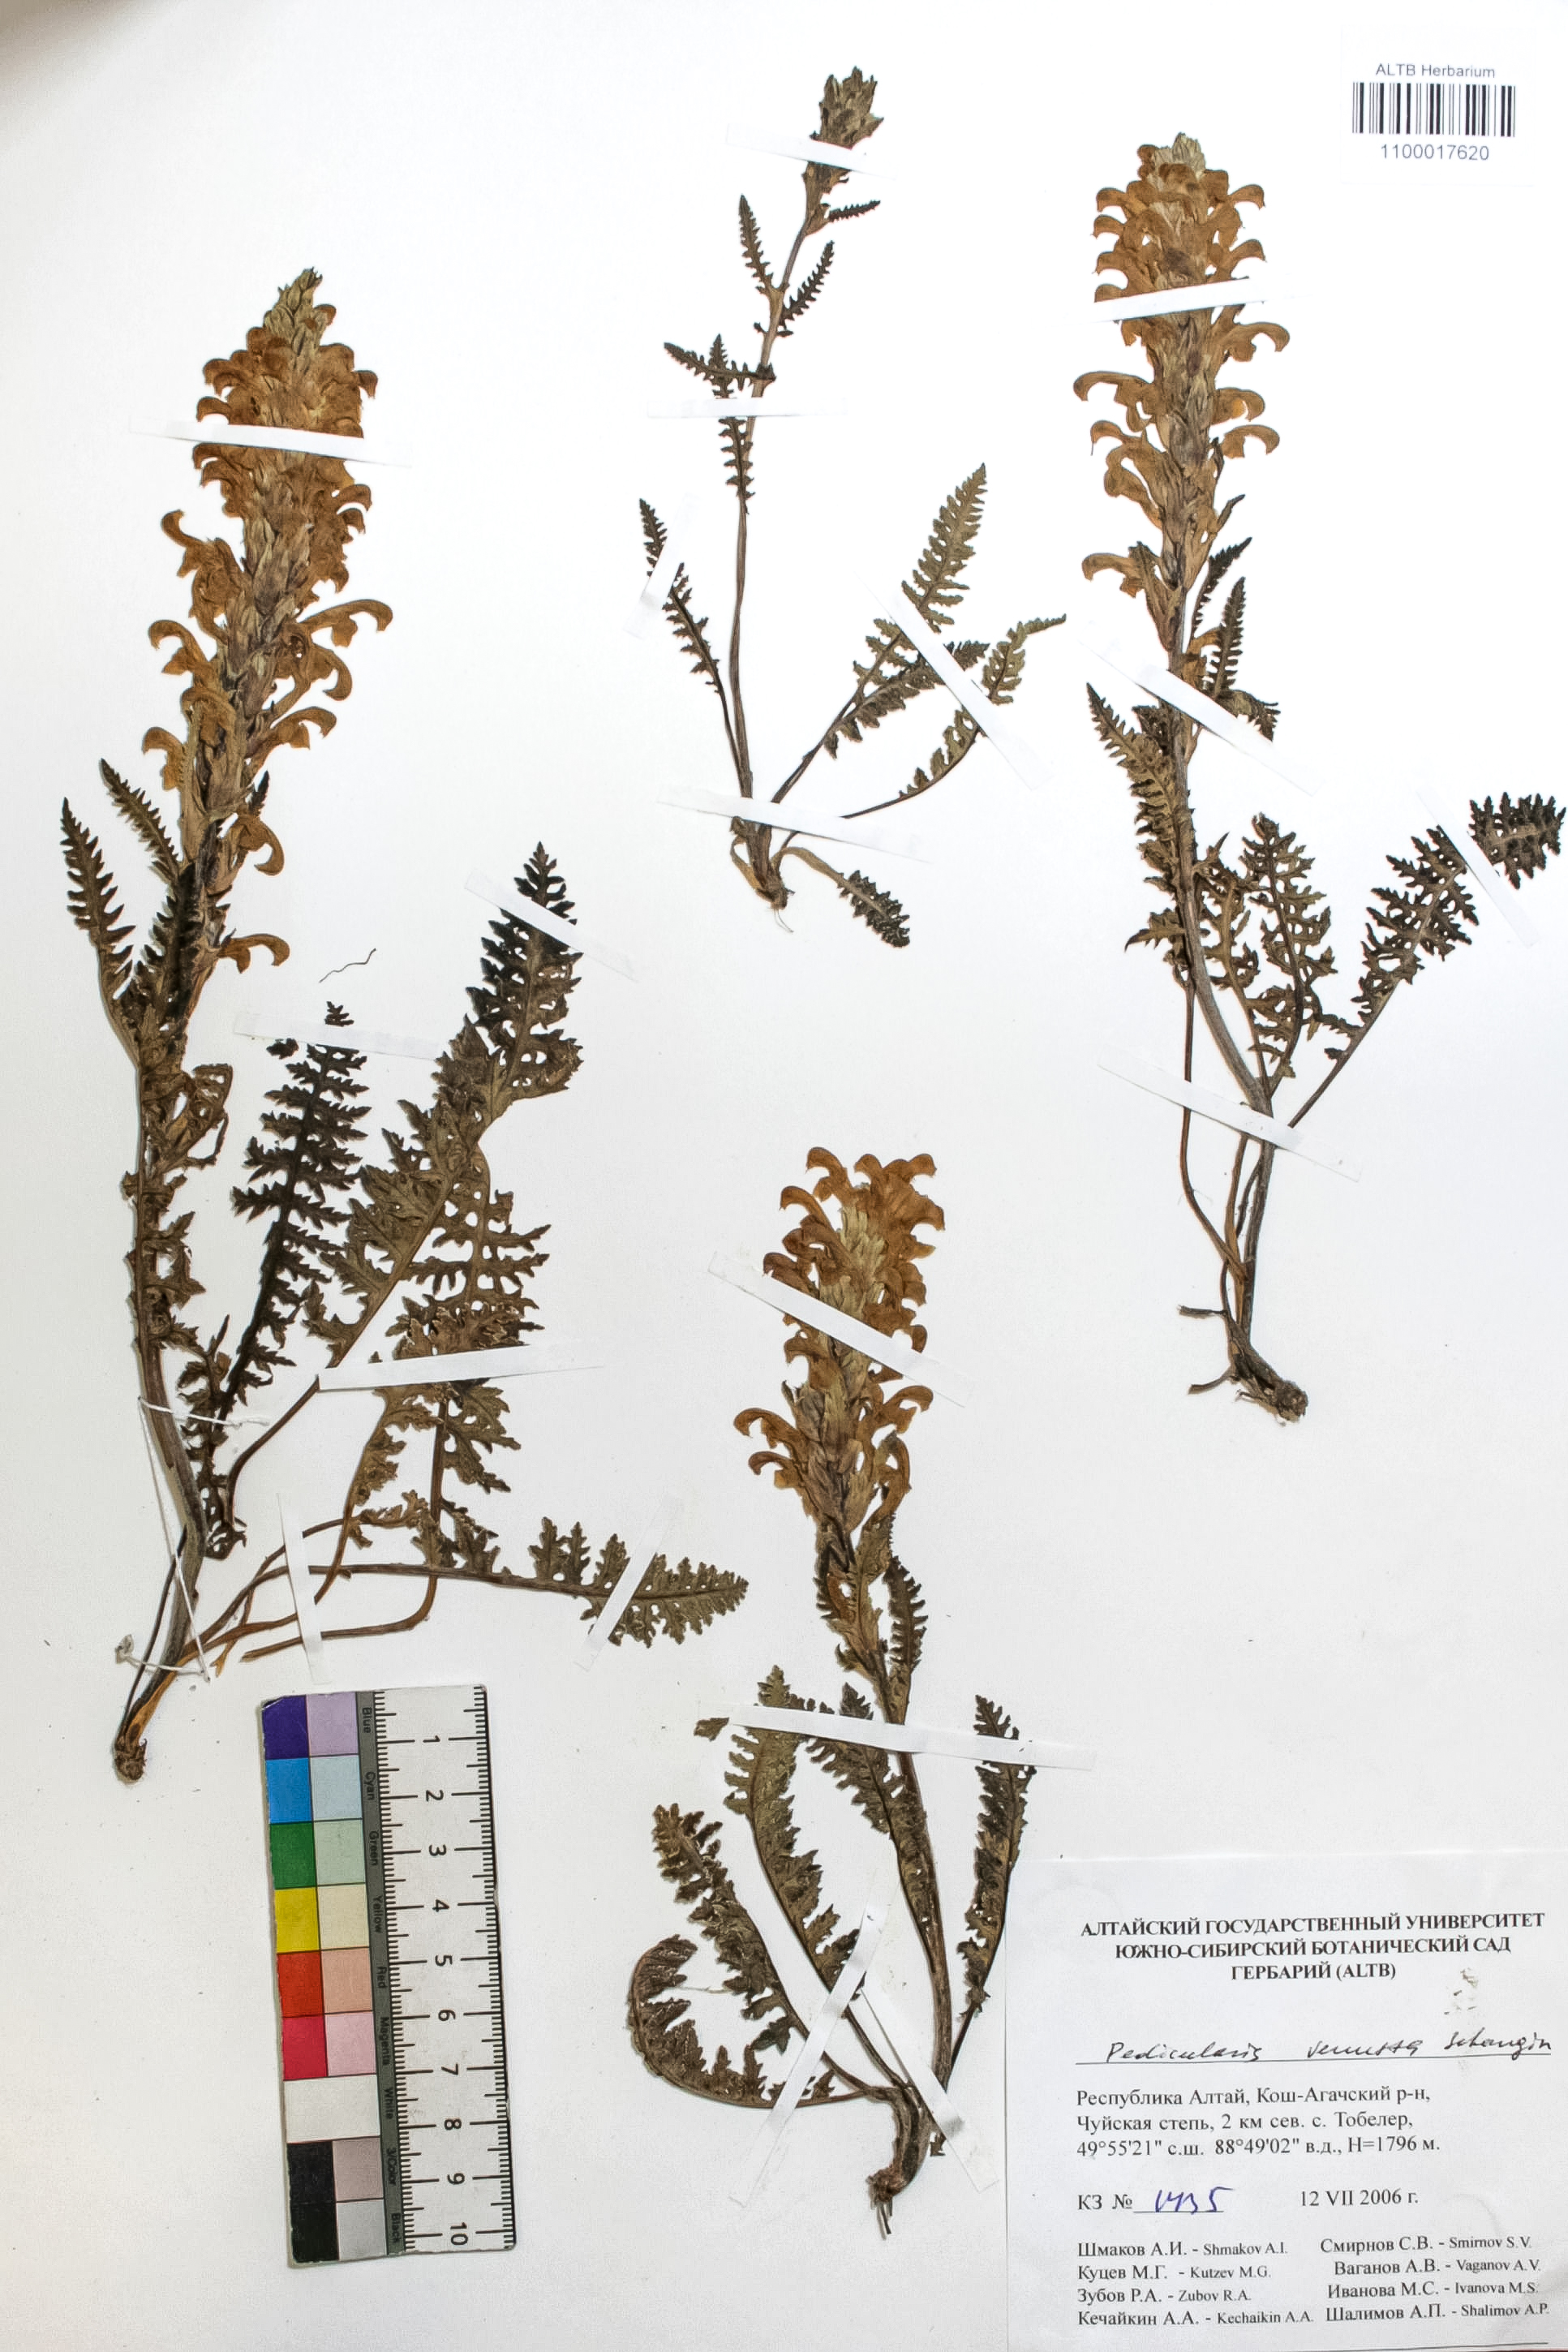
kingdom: Plantae
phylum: Tracheophyta
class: Magnoliopsida
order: Lamiales
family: Orobanchaceae
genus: Pedicularis
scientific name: Pedicularis venusta
